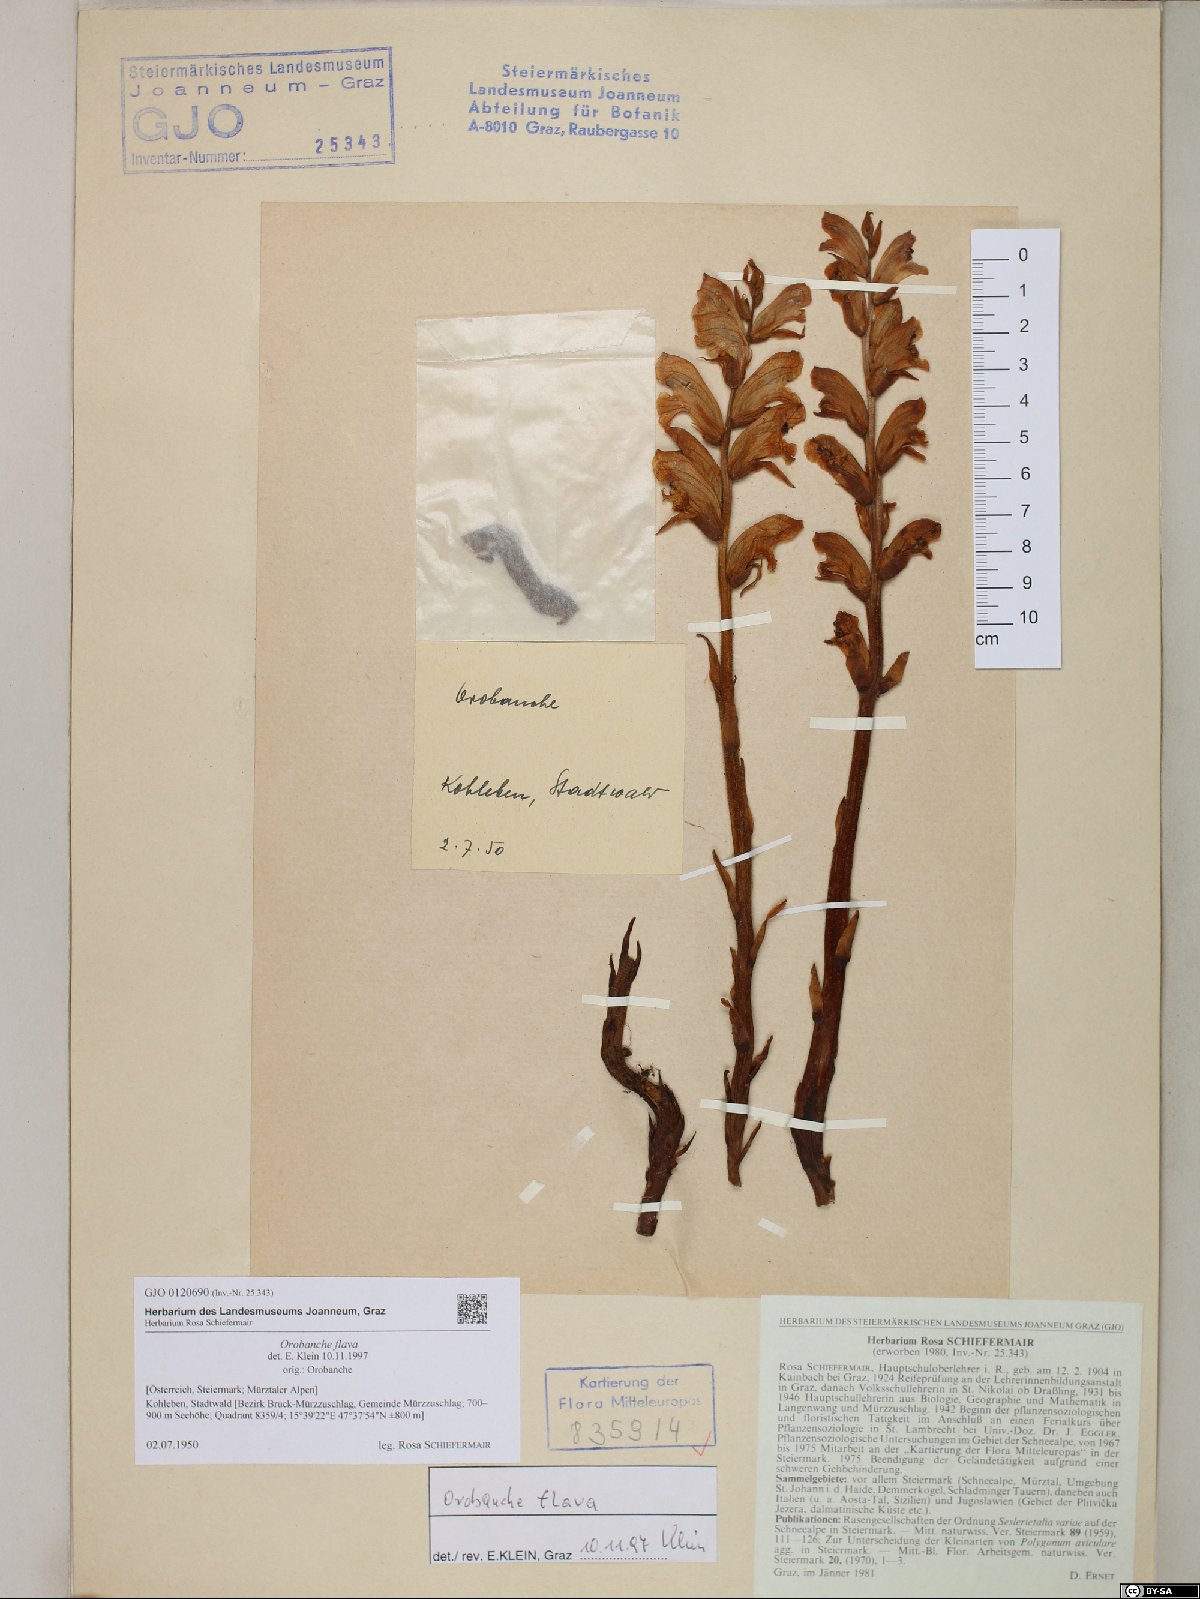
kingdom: Plantae
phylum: Tracheophyta
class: Magnoliopsida
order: Lamiales
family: Orobanchaceae
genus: Orobanche
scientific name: Orobanche flava
